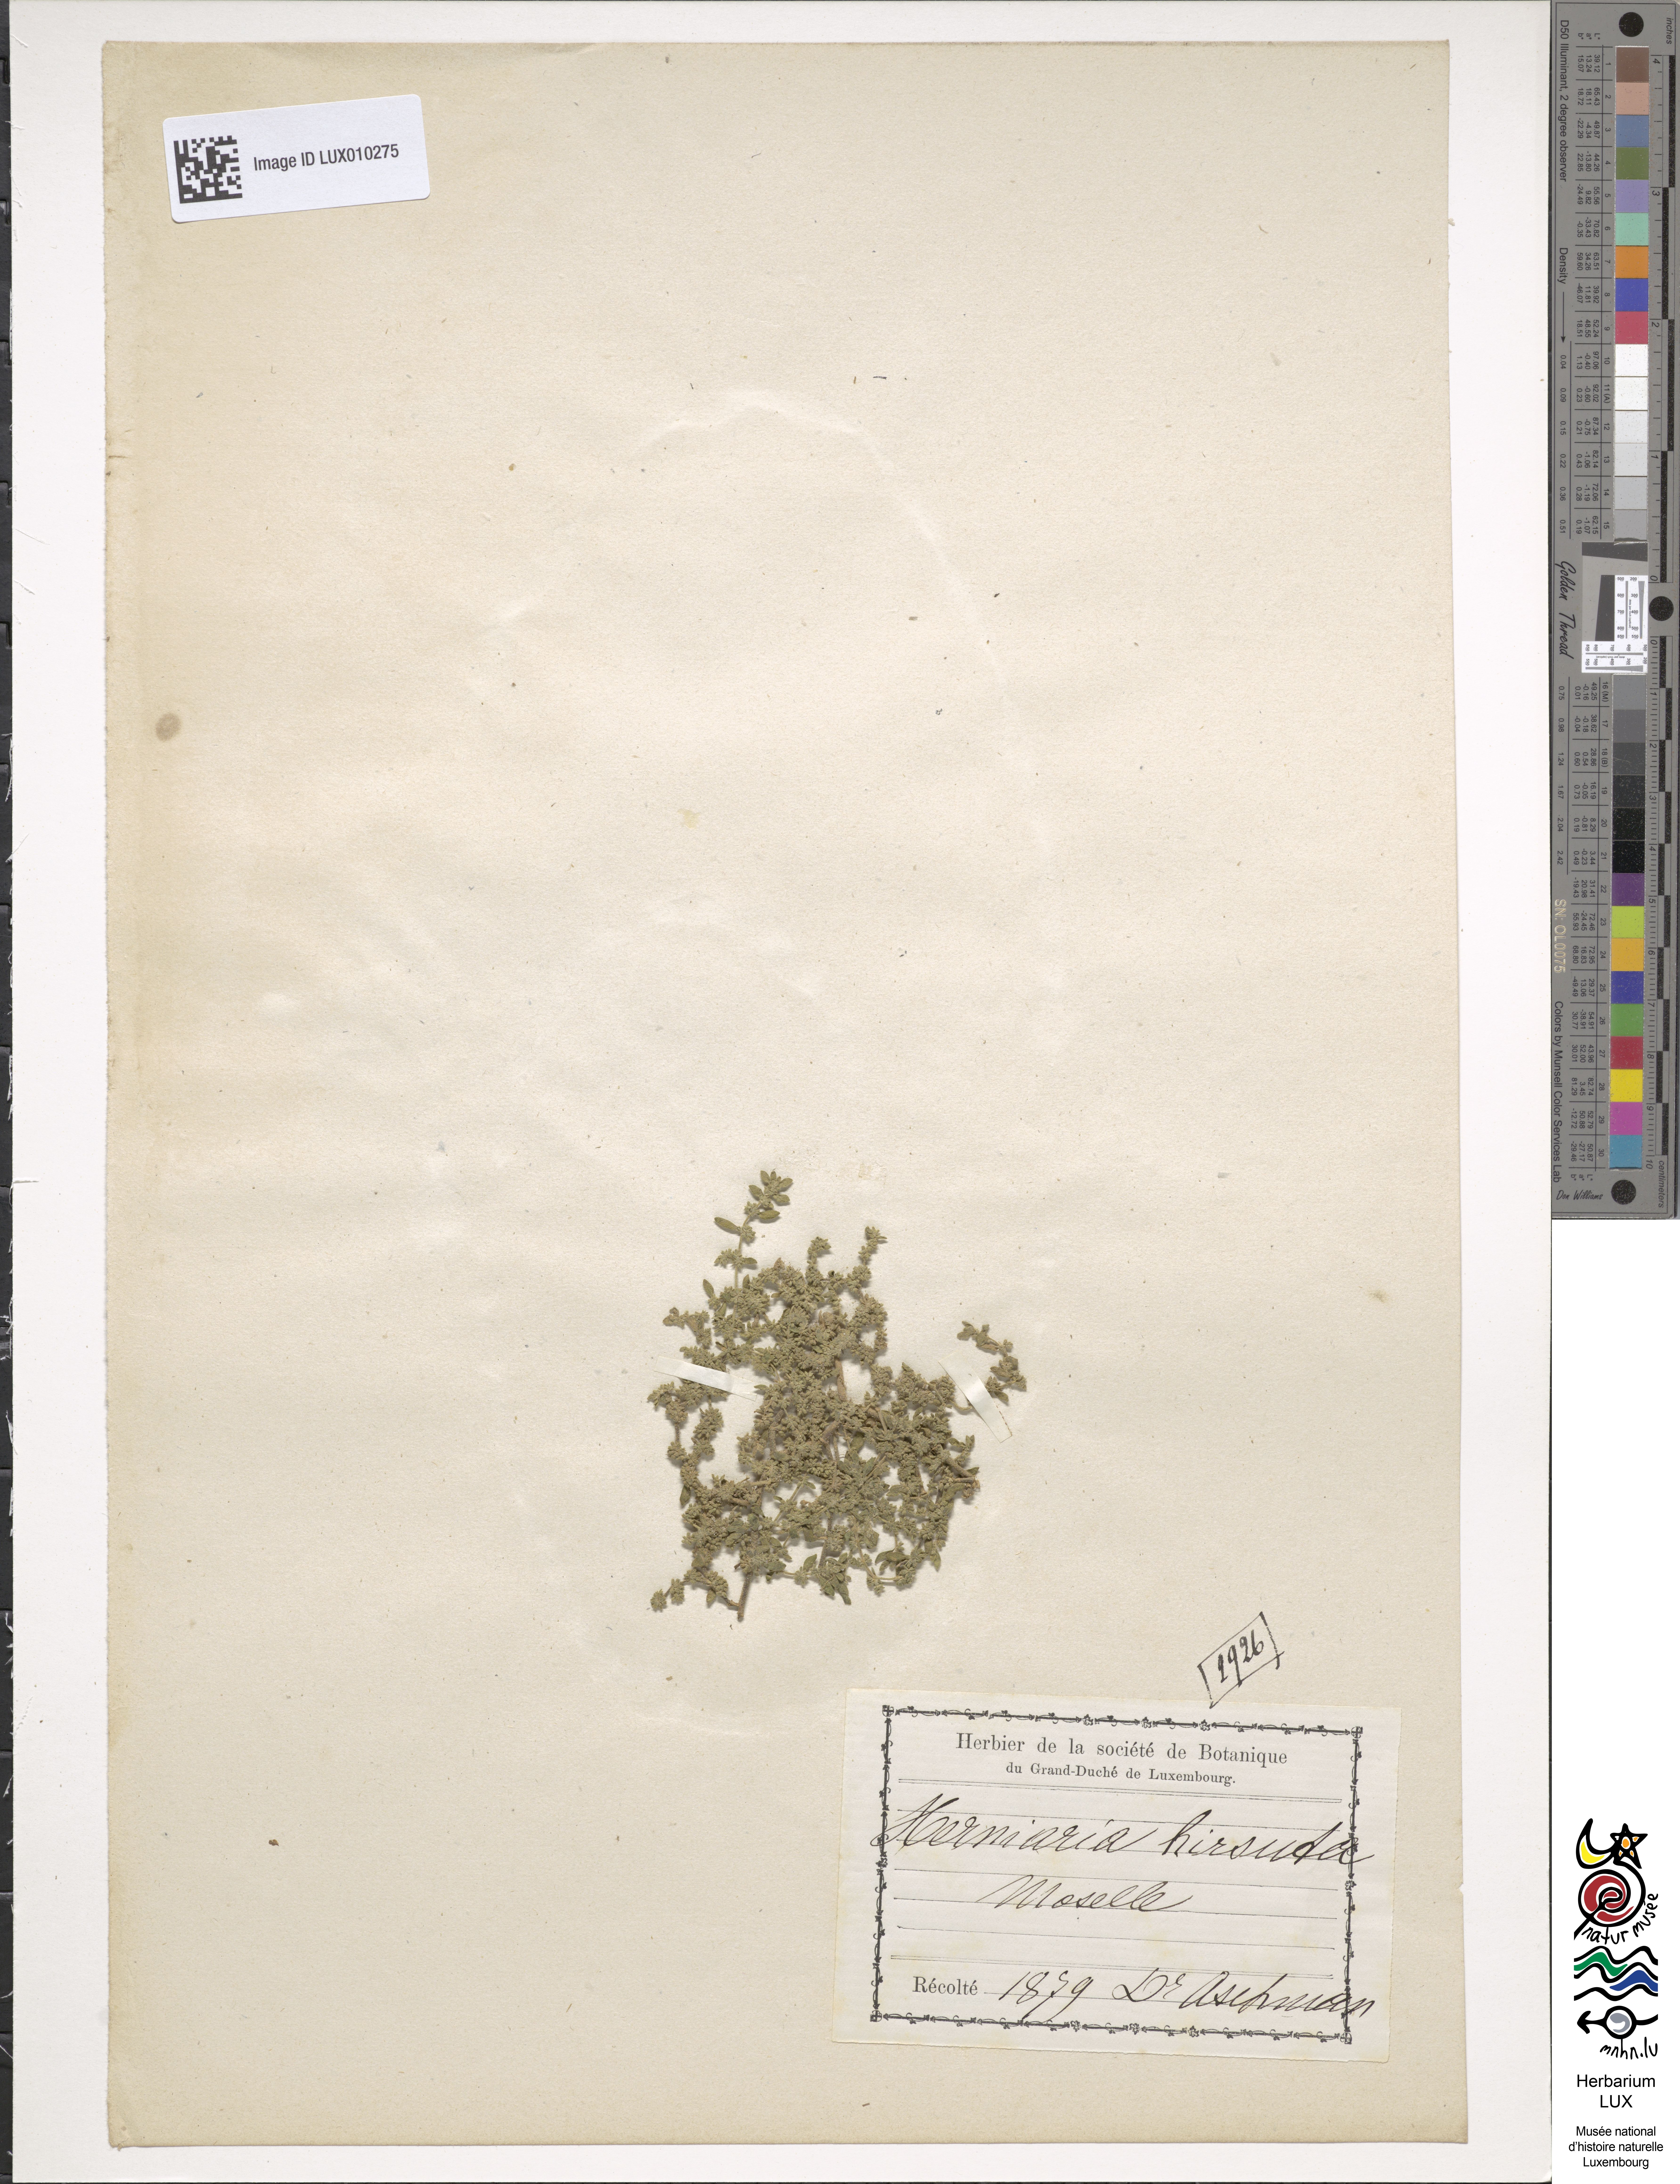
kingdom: Plantae
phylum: Tracheophyta
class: Magnoliopsida
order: Caryophyllales
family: Caryophyllaceae
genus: Herniaria
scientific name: Herniaria hirsuta
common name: Hairy rupturewort
